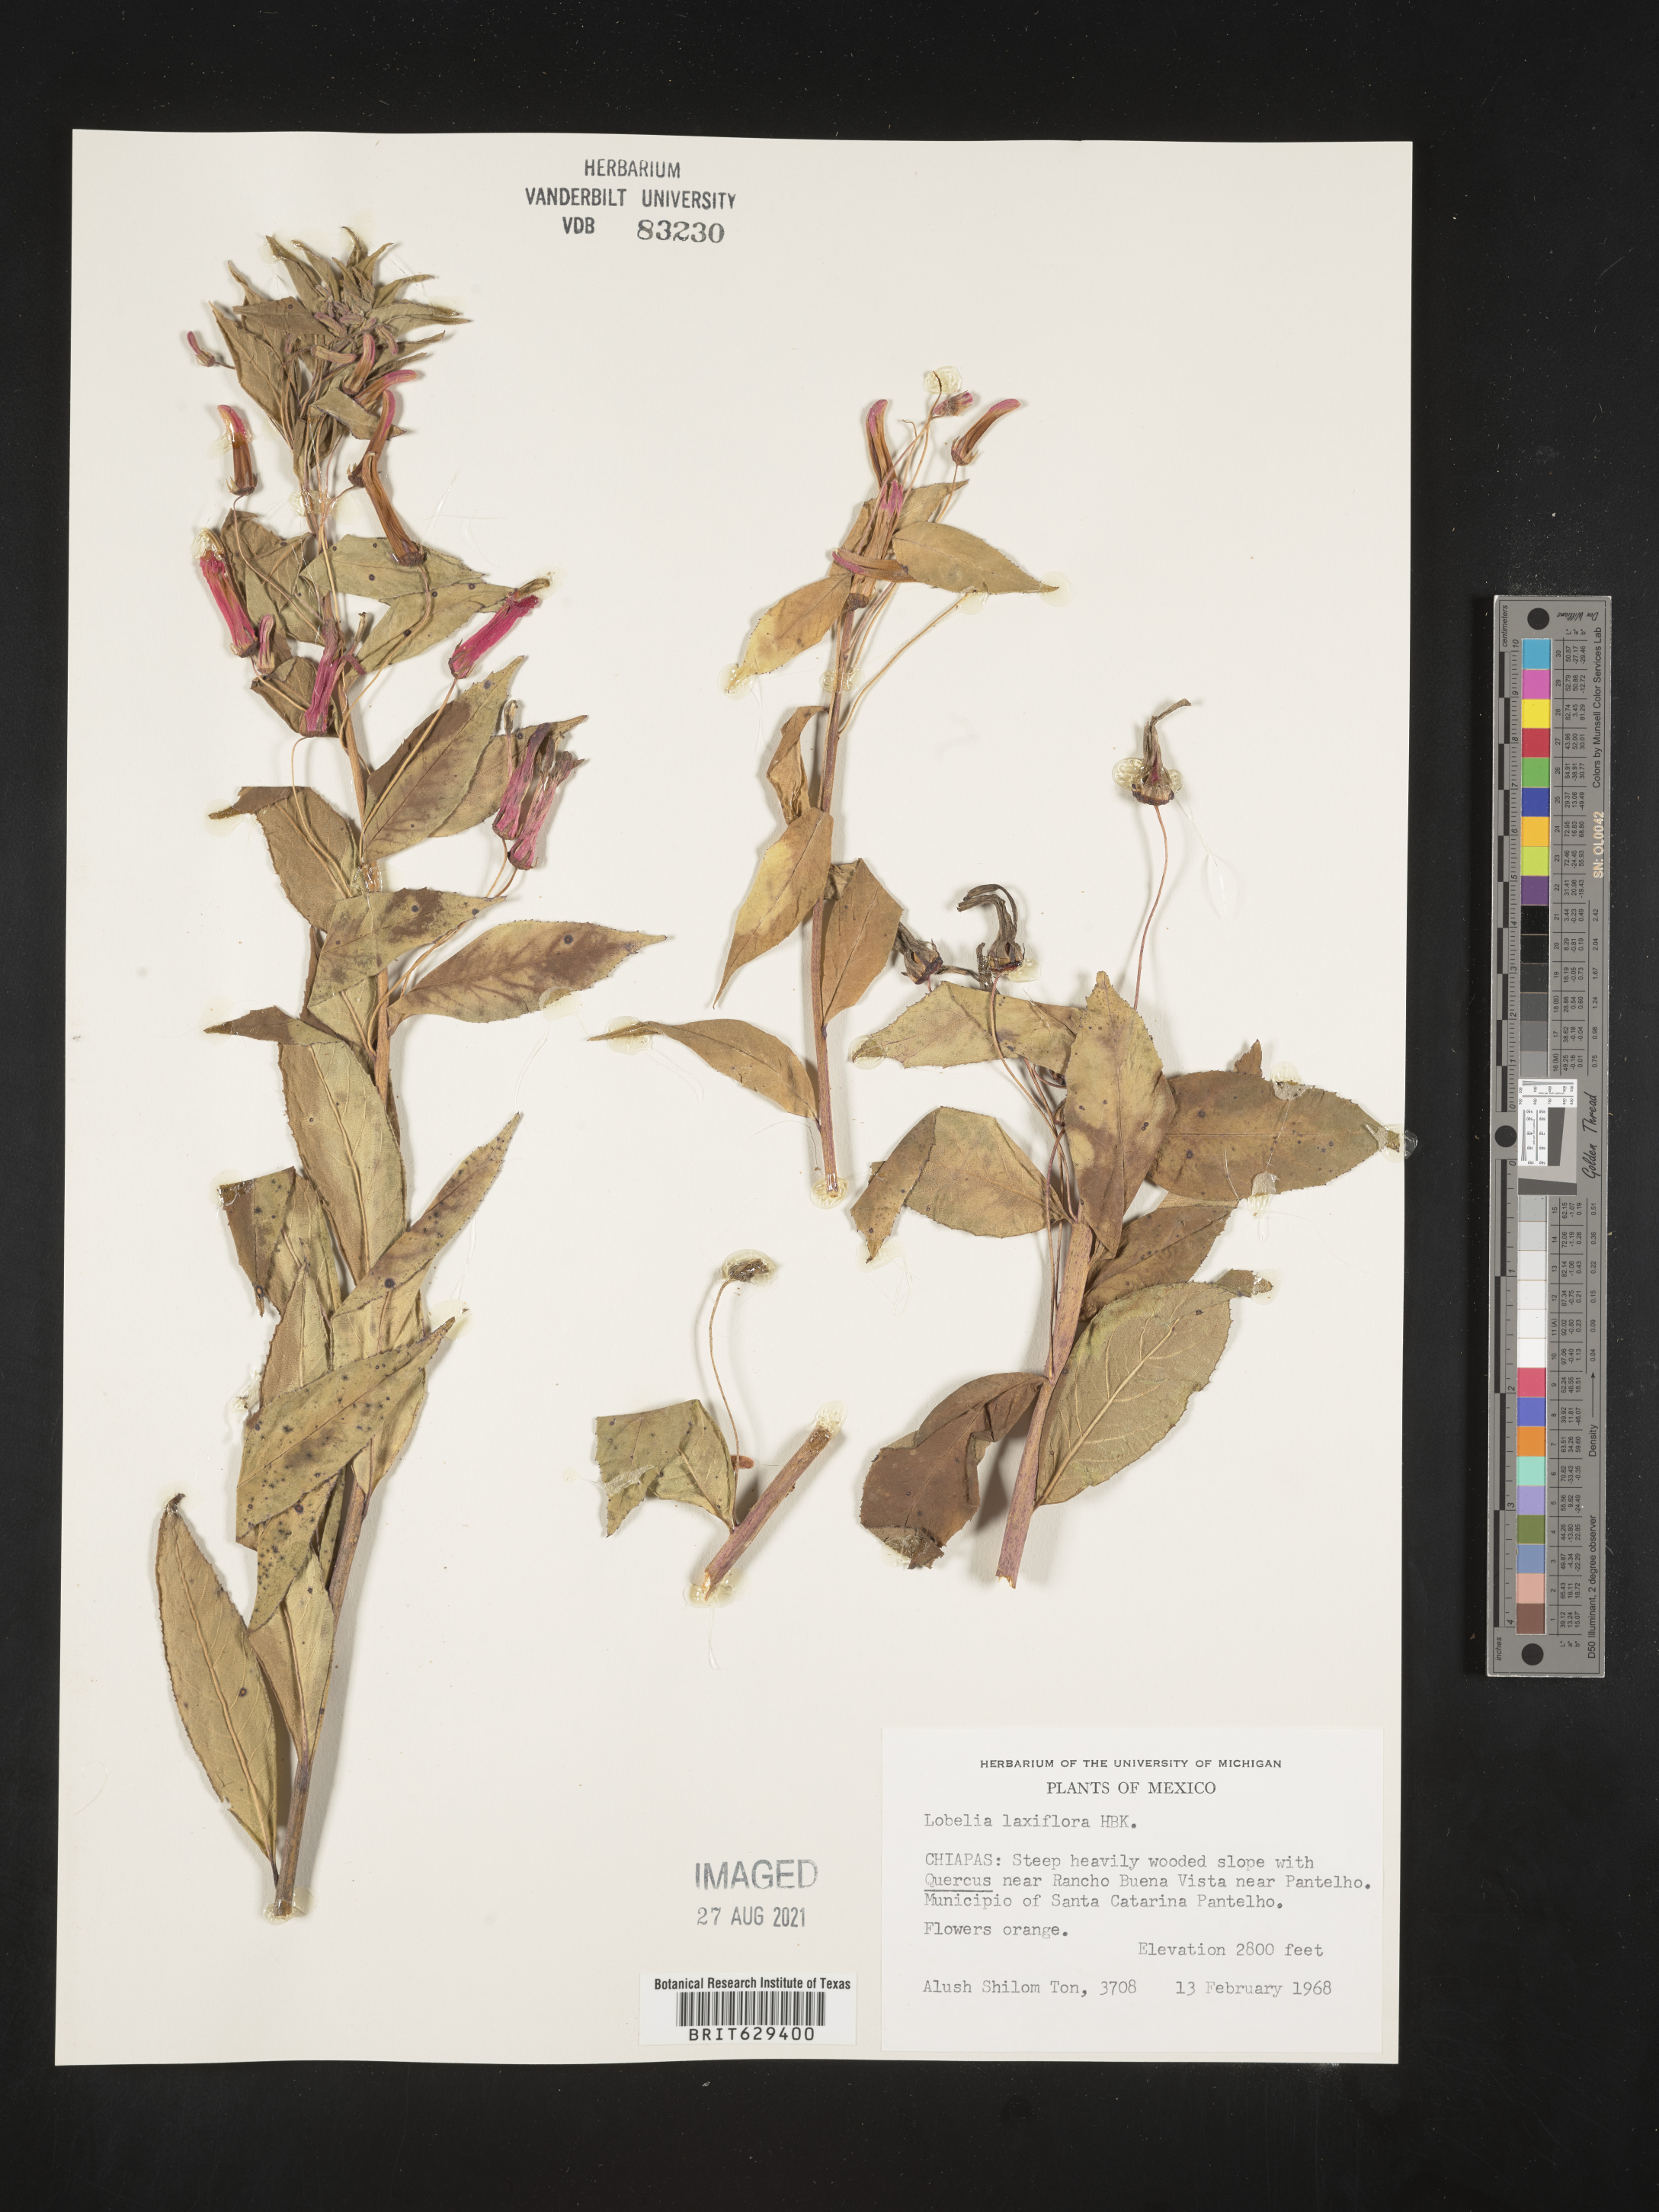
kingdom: Plantae
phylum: Tracheophyta
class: Magnoliopsida
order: Asterales
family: Campanulaceae
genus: Lobelia
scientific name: Lobelia
